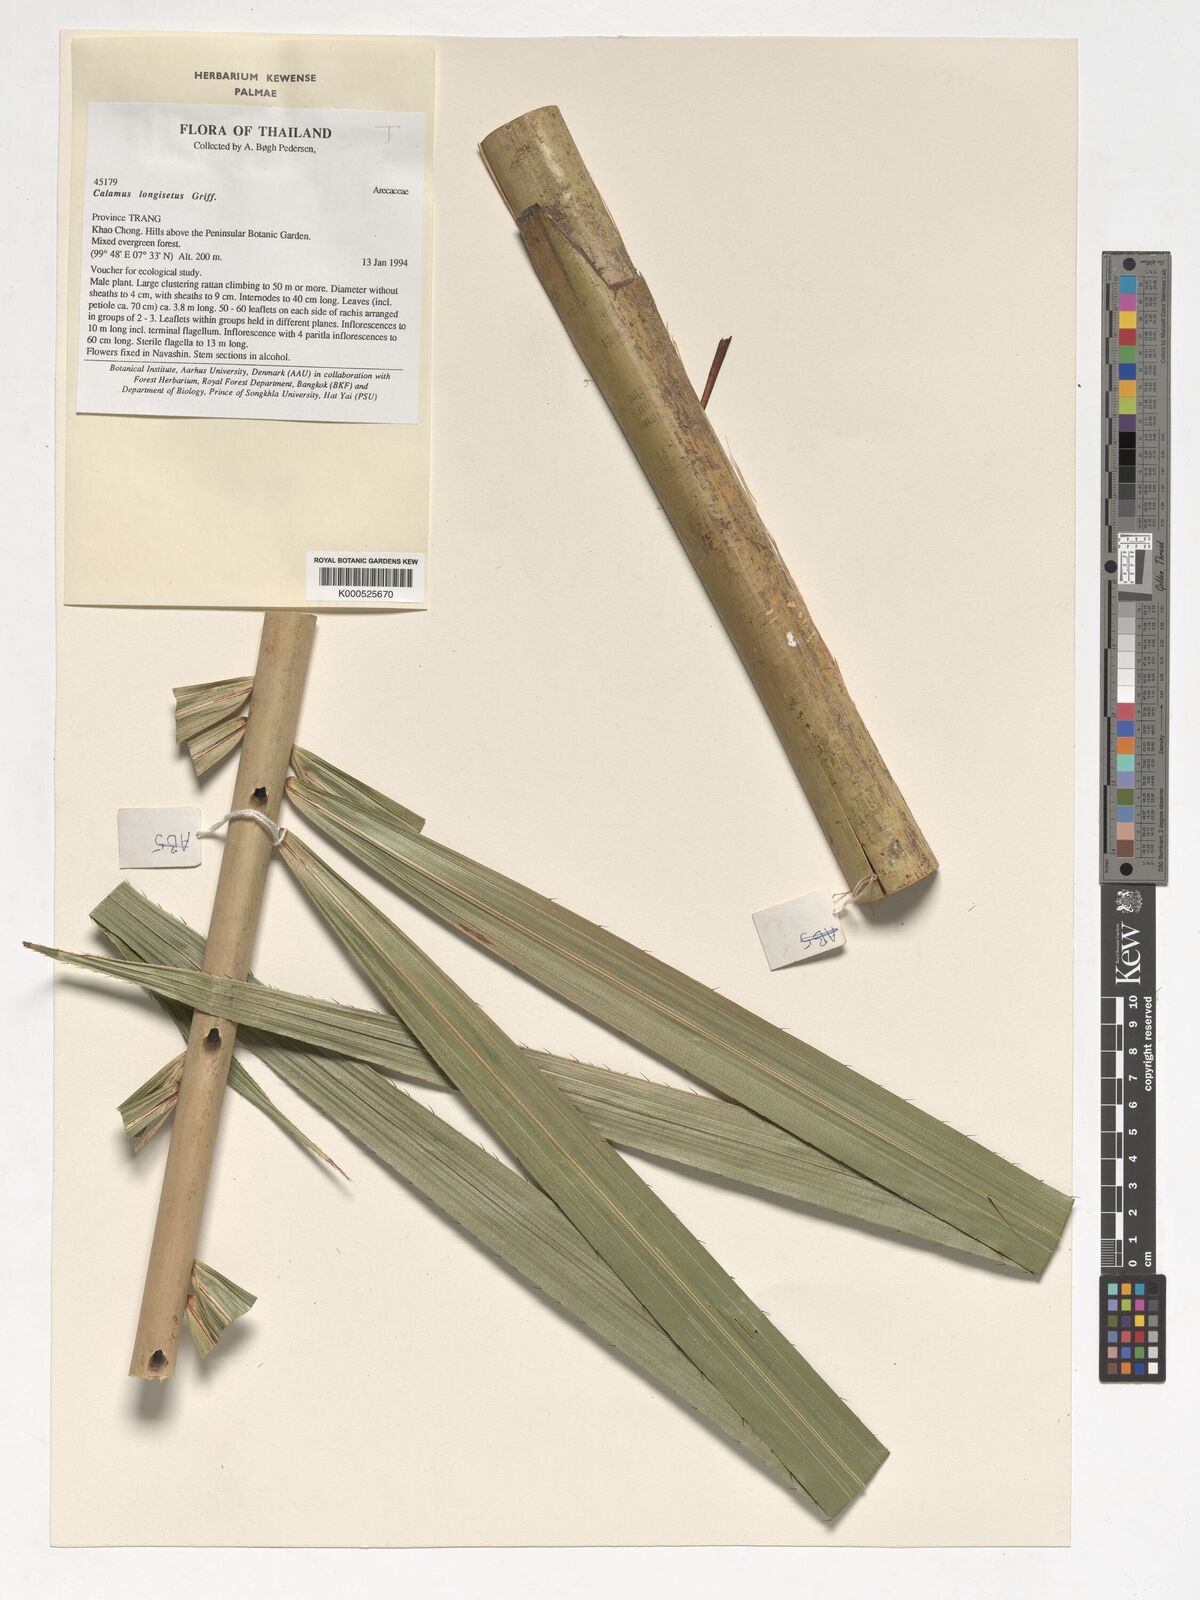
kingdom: Plantae
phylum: Tracheophyta
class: Liliopsida
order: Arecales
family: Arecaceae
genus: Calamus
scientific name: Calamus longisetus
